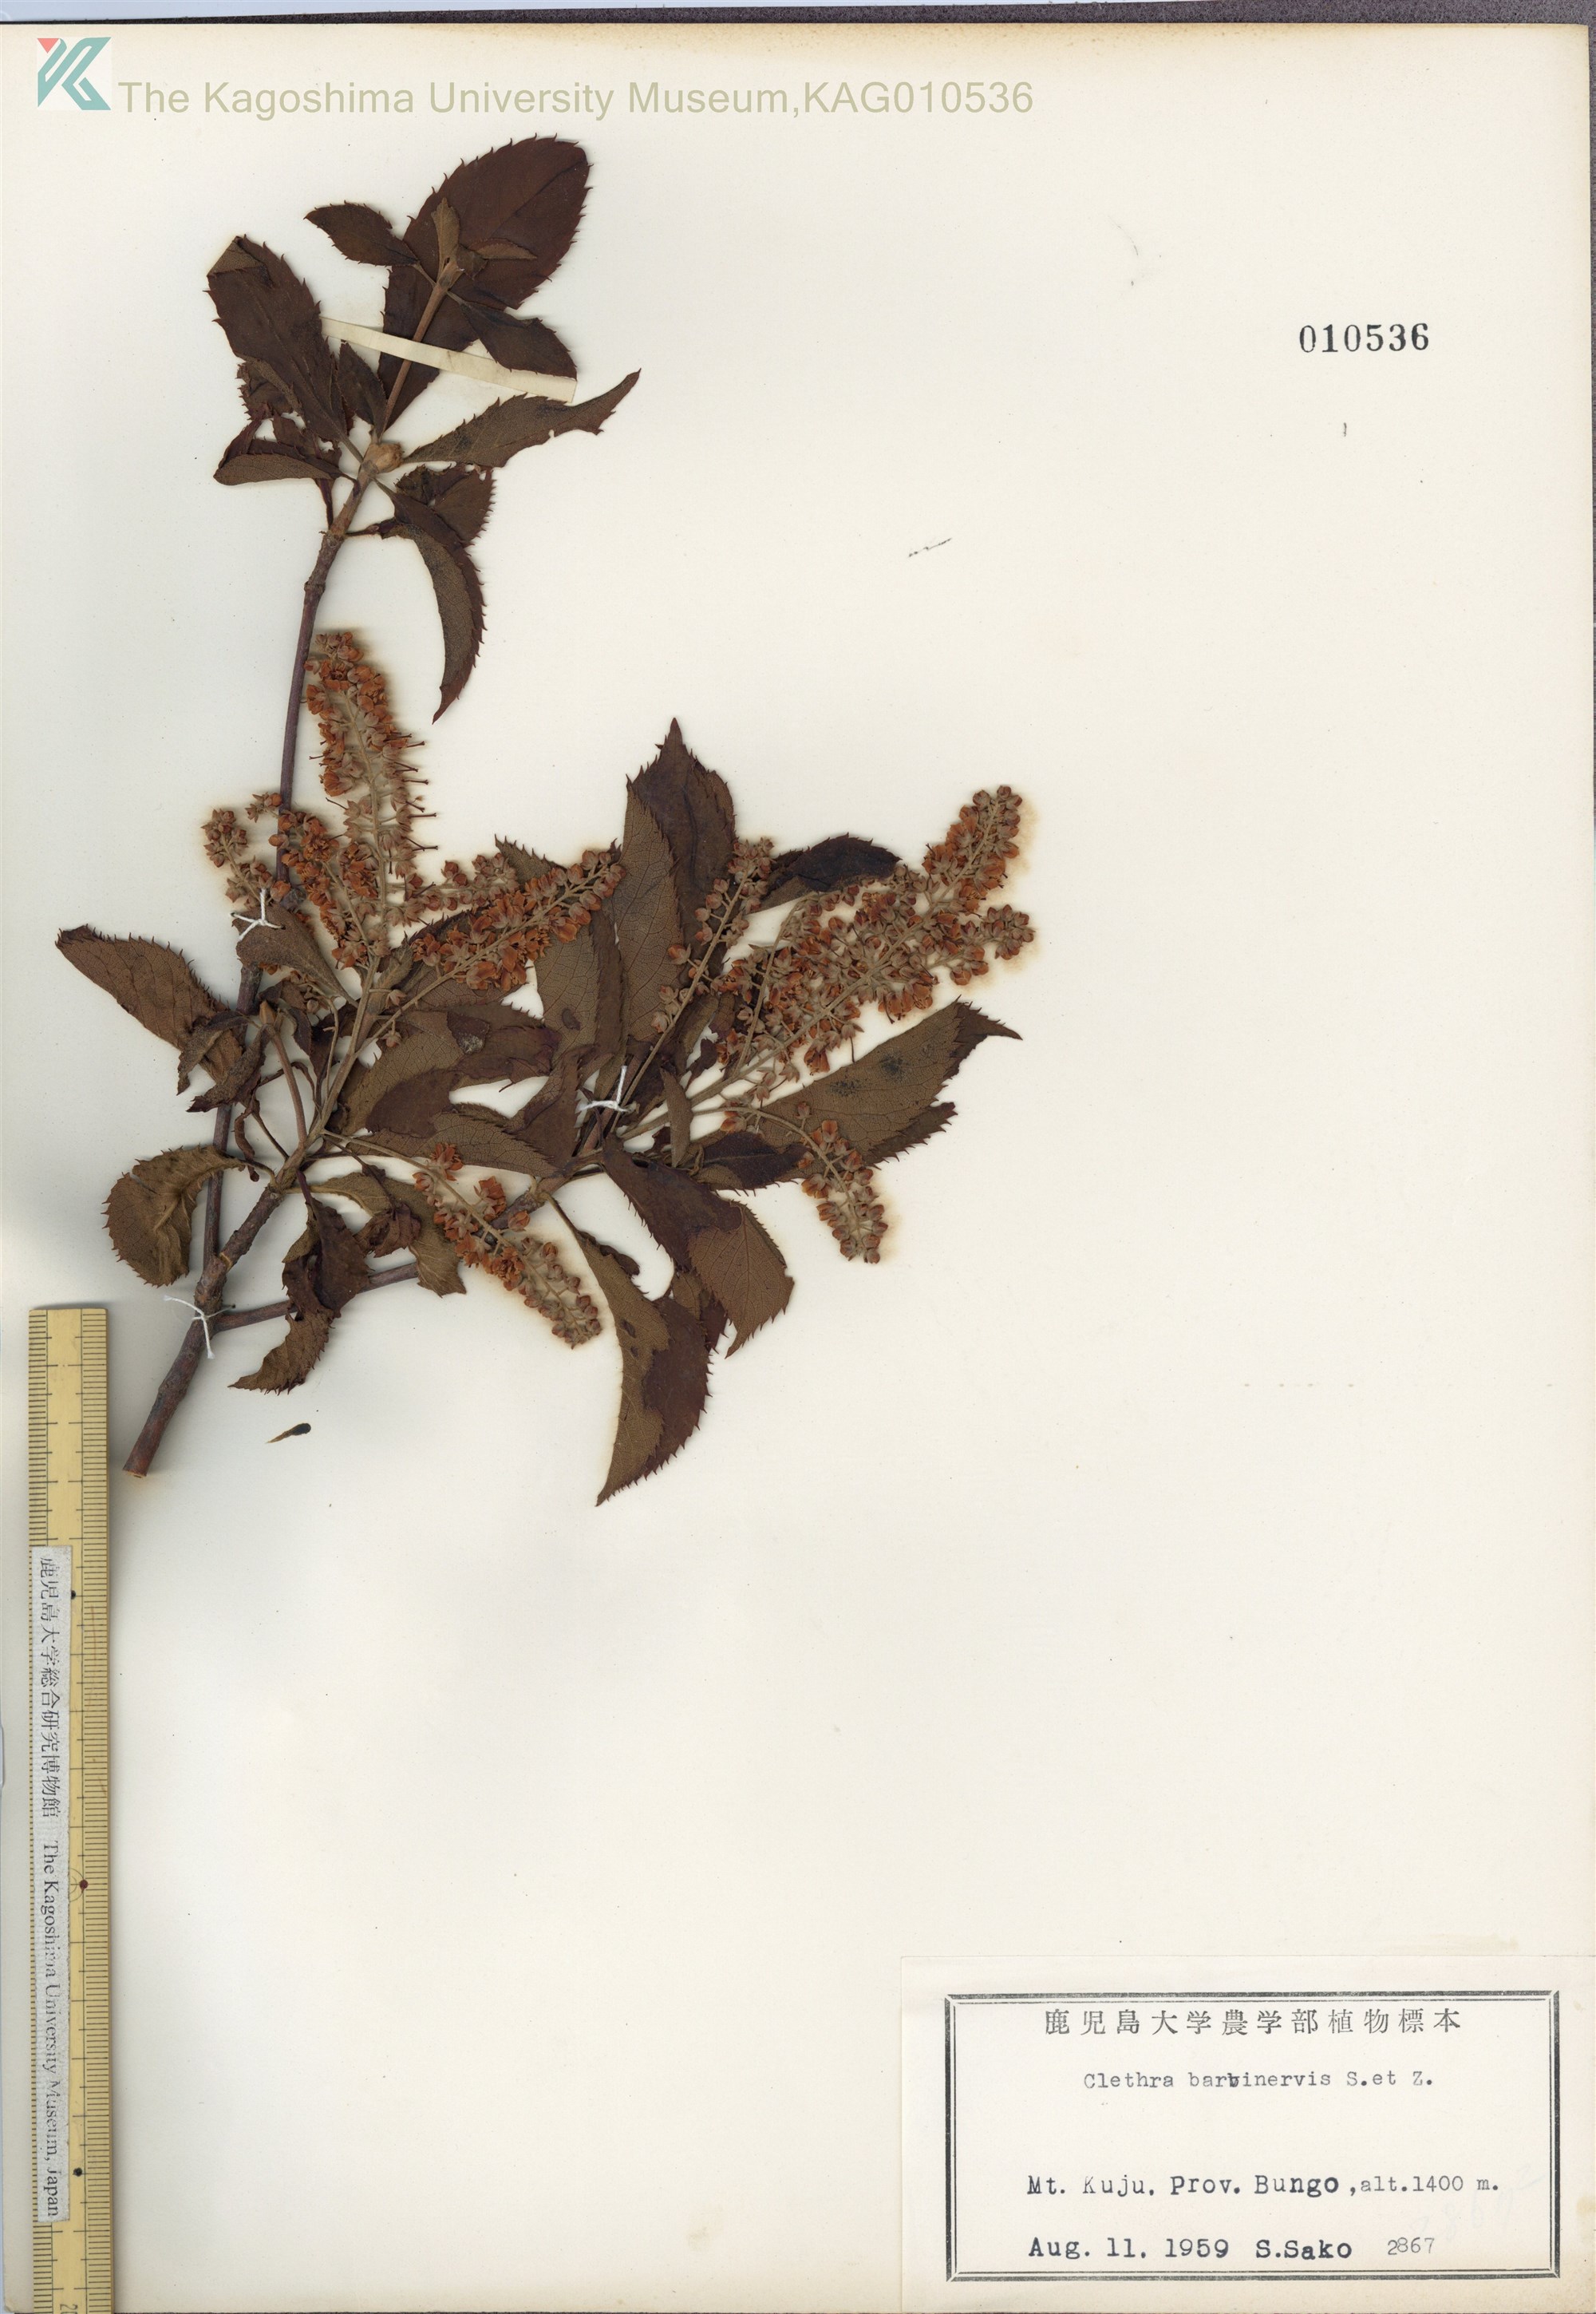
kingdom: Plantae
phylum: Tracheophyta
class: Magnoliopsida
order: Ericales
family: Clethraceae
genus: Clethra
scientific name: Clethra barbinervis
